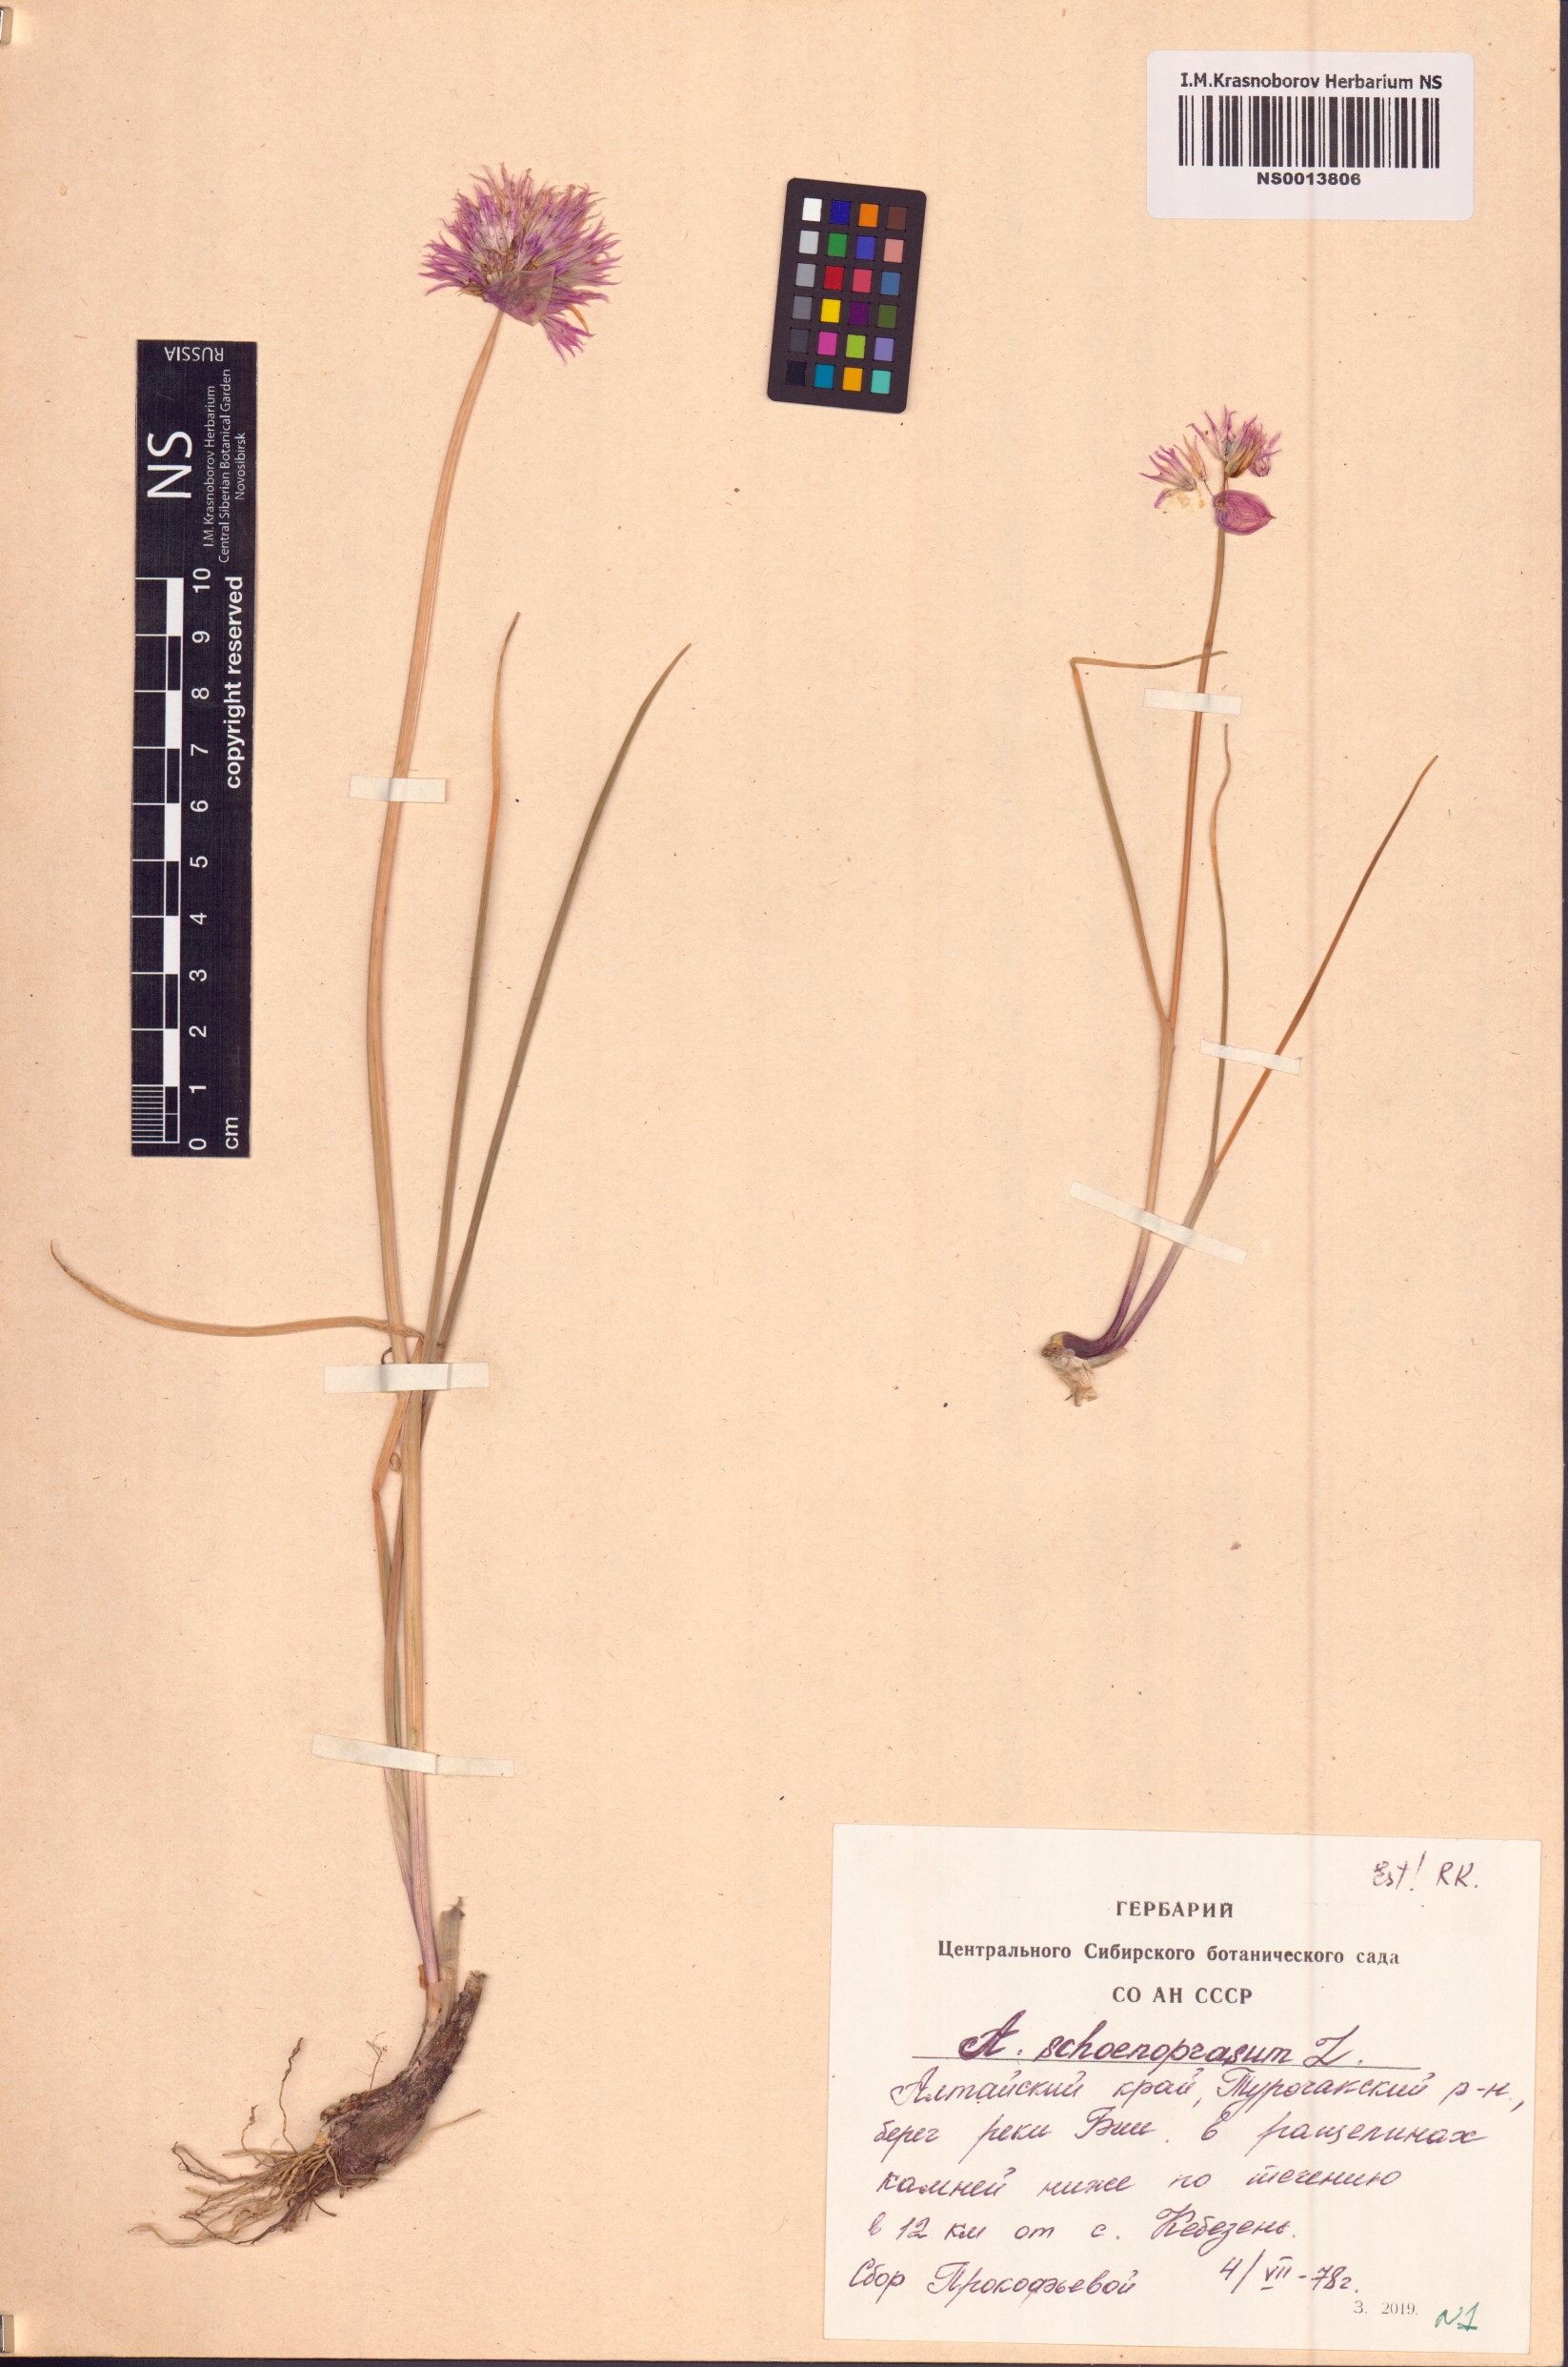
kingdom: Plantae
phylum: Tracheophyta
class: Liliopsida
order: Asparagales
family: Amaryllidaceae
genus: Allium
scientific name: Allium schoenoprasum
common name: Chives
